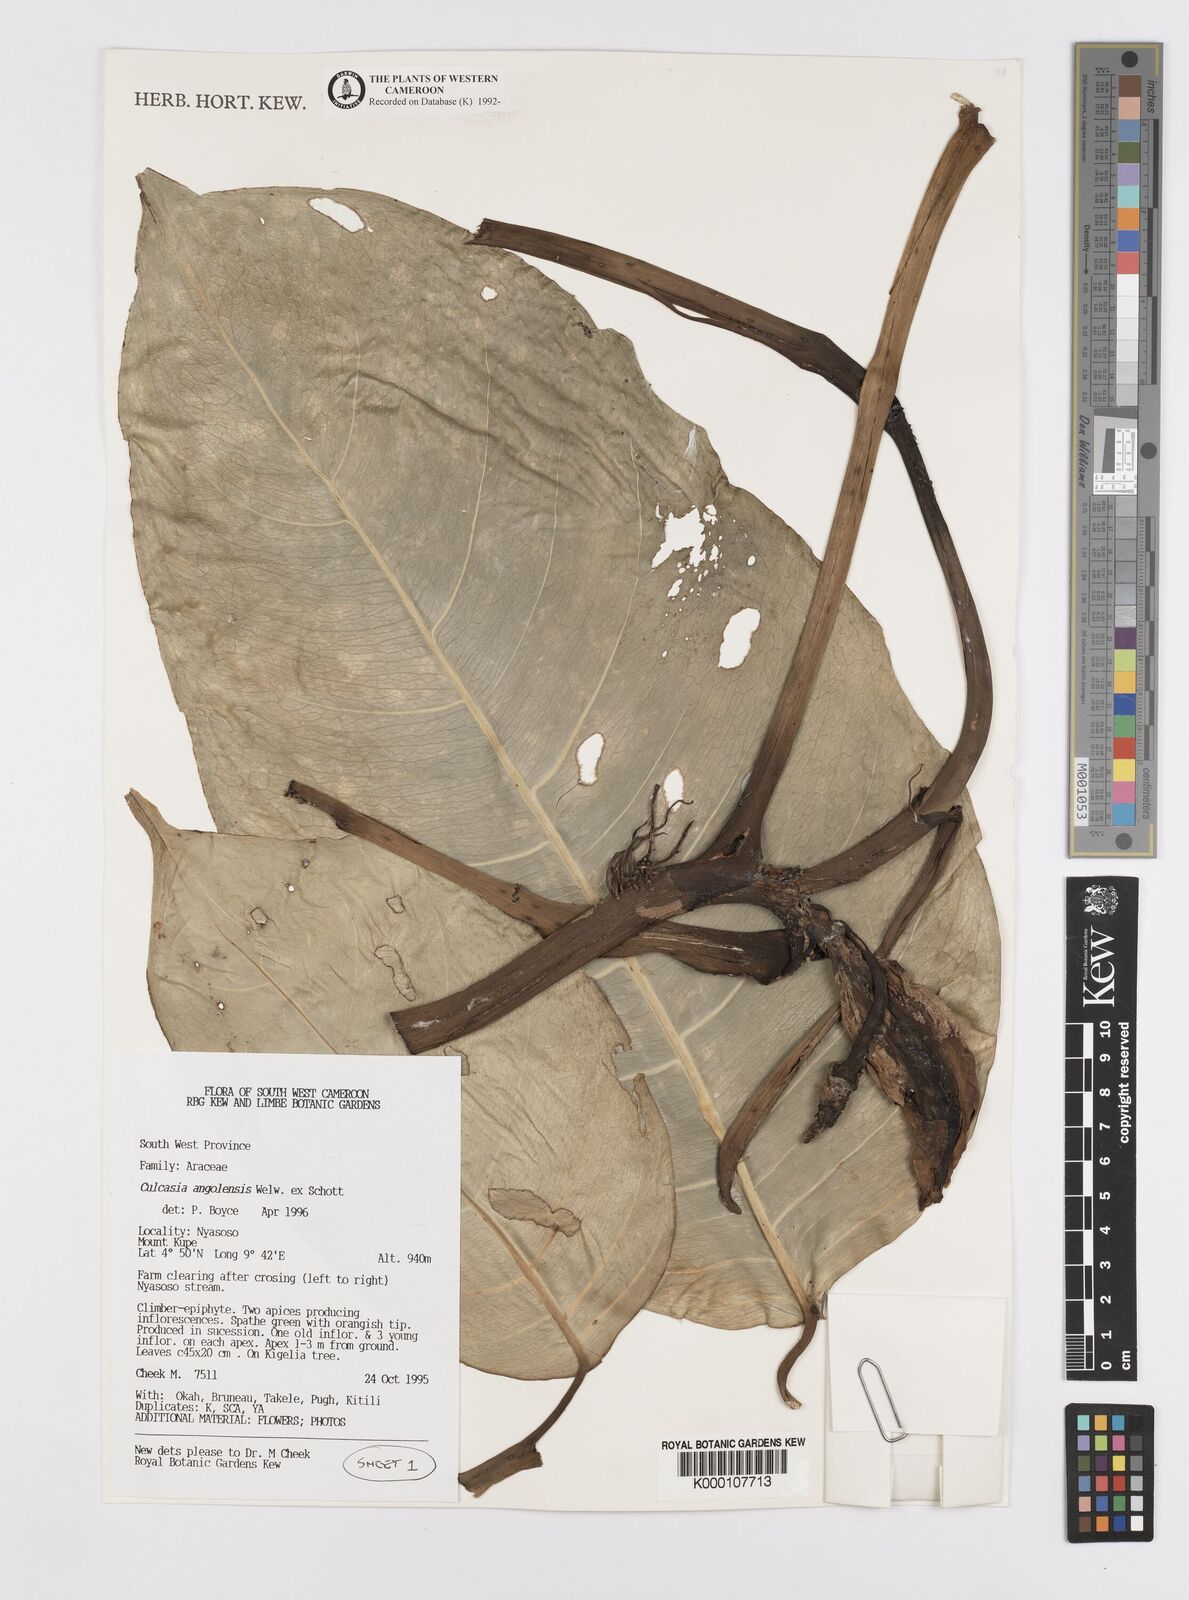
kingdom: Plantae
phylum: Tracheophyta
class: Liliopsida
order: Alismatales
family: Araceae
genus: Culcasia
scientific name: Culcasia angolensis
